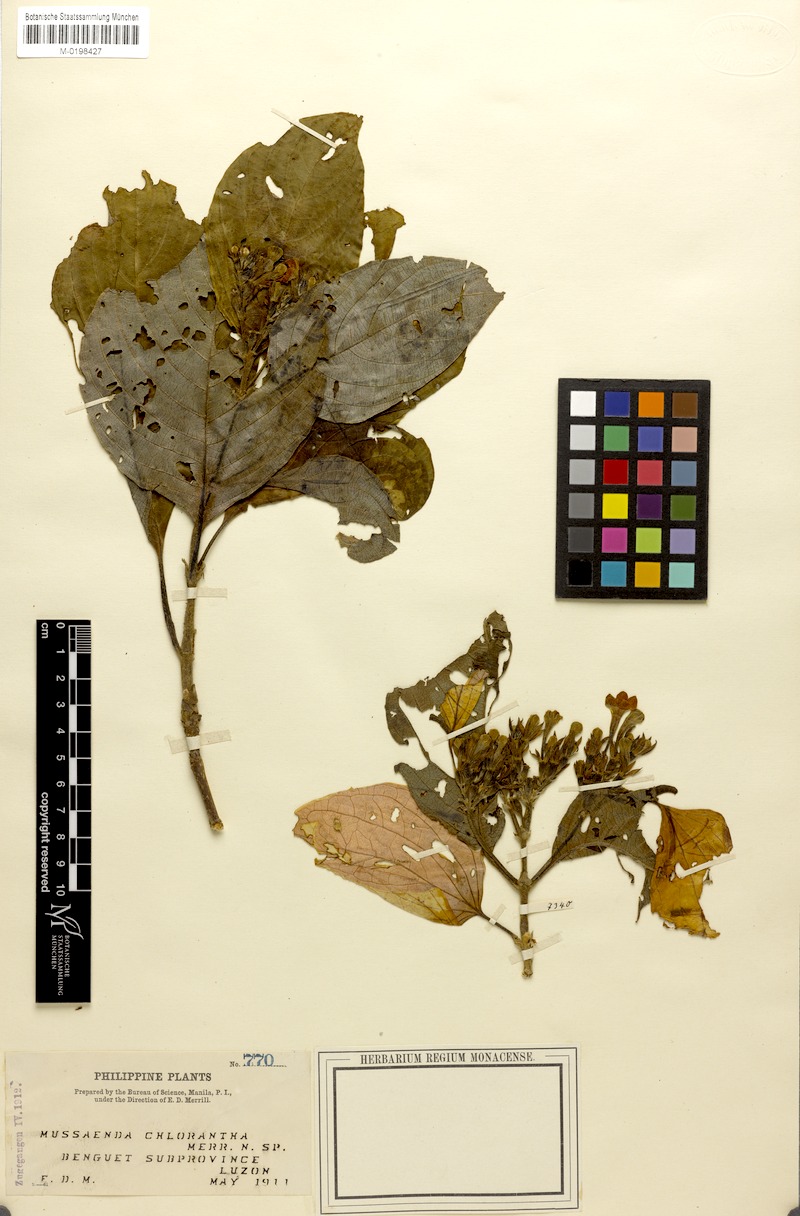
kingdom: Plantae
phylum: Tracheophyta
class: Magnoliopsida
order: Gentianales
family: Rubiaceae
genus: Mussaenda
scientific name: Mussaenda chlorantha
